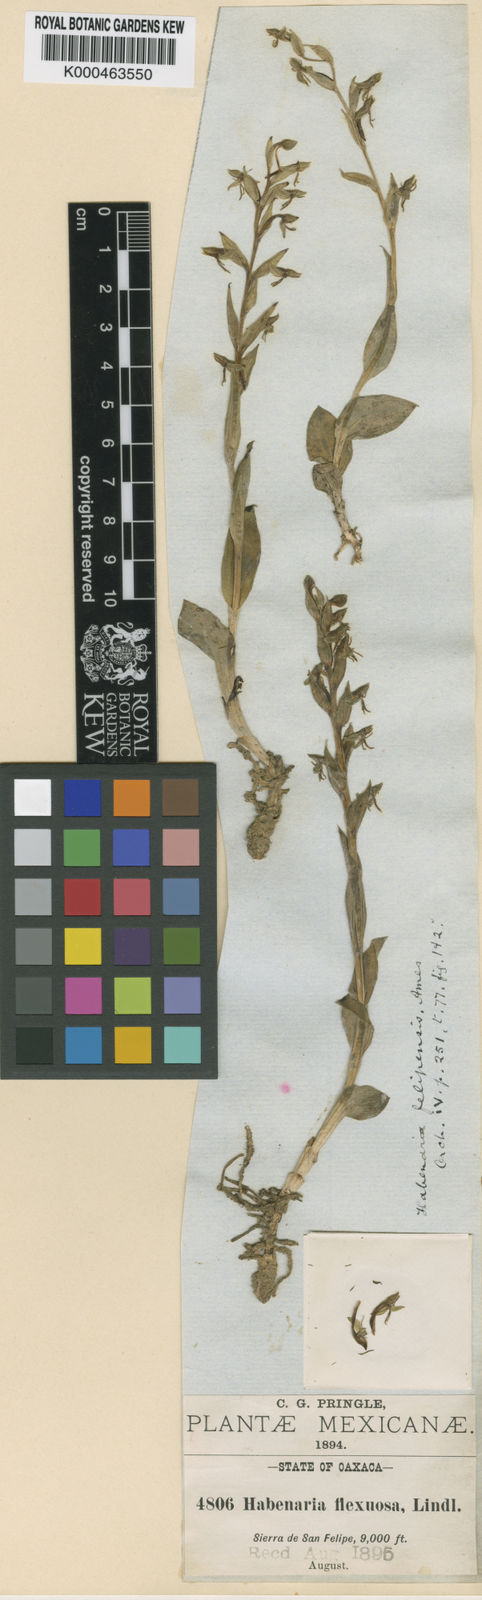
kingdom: Plantae
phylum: Tracheophyta
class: Liliopsida
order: Asparagales
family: Orchidaceae
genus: Habenaria
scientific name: Habenaria felipensis
